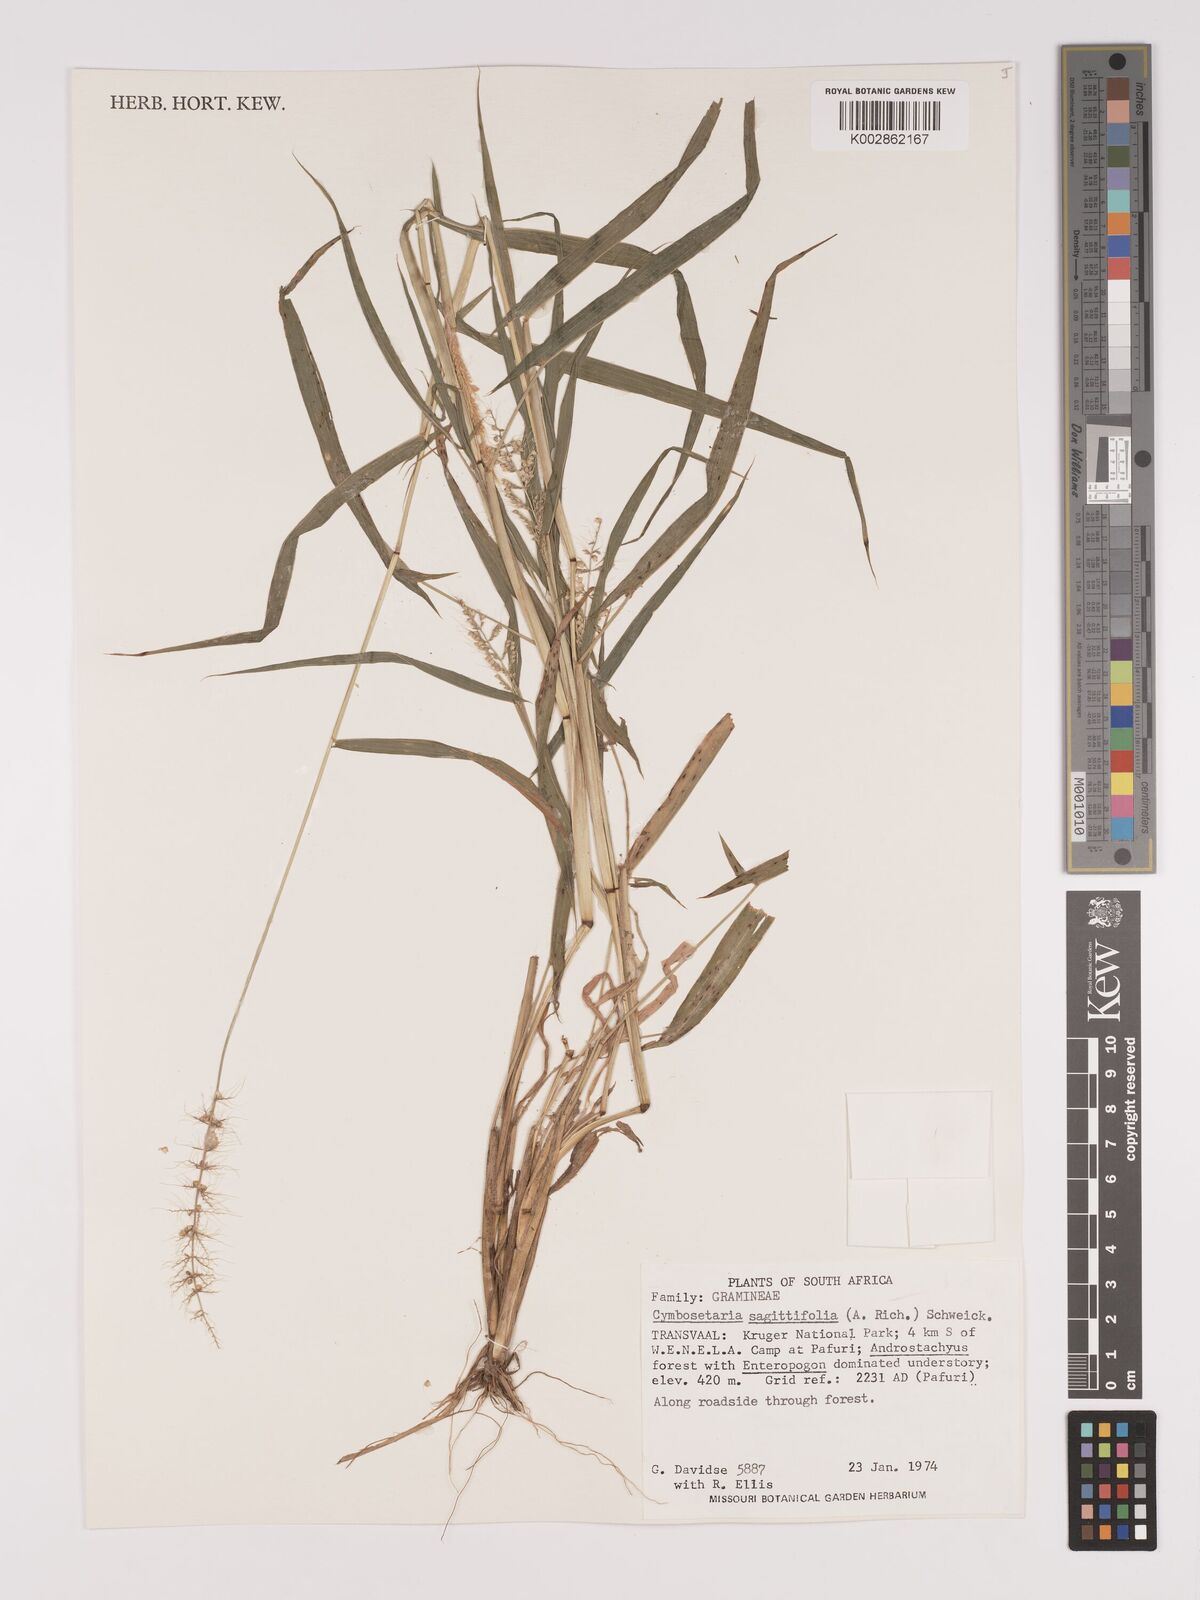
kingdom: Plantae
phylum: Tracheophyta
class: Liliopsida
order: Poales
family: Poaceae
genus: Setaria
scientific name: Setaria sagittifolia
